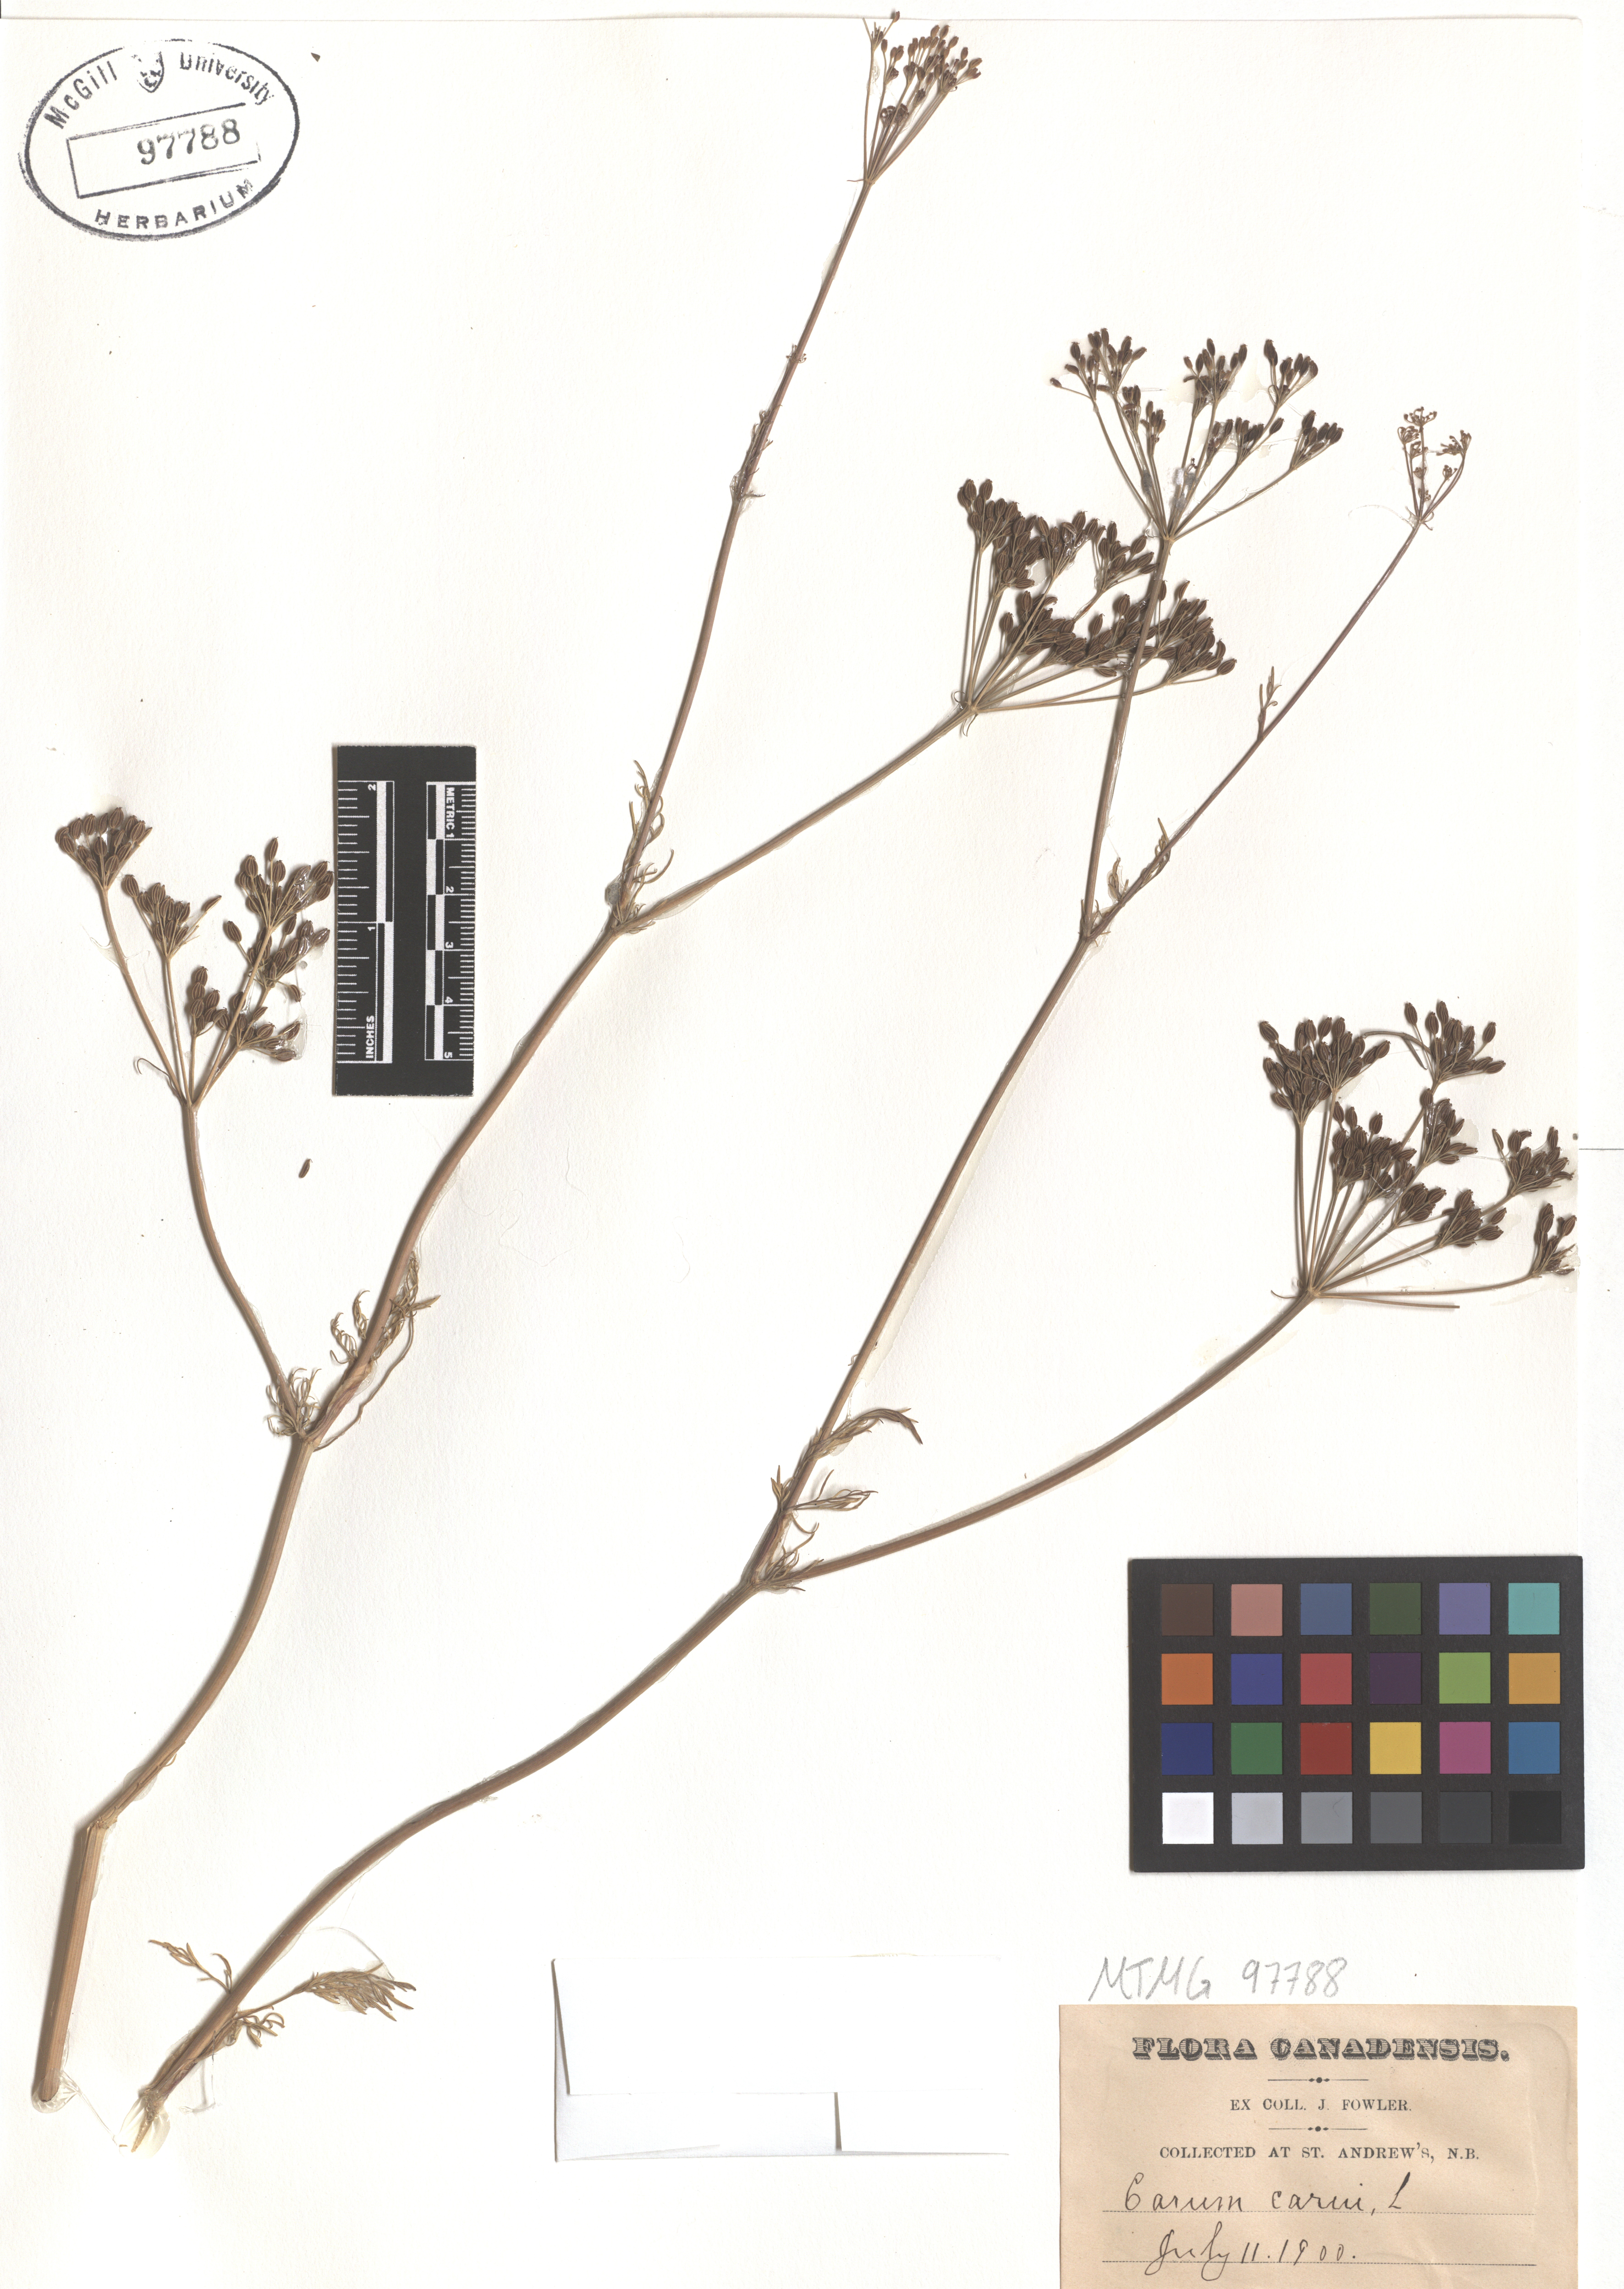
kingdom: Plantae
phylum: Tracheophyta
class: Magnoliopsida
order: Apiales
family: Apiaceae
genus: Carum
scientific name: Carum carvi
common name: Caraway
